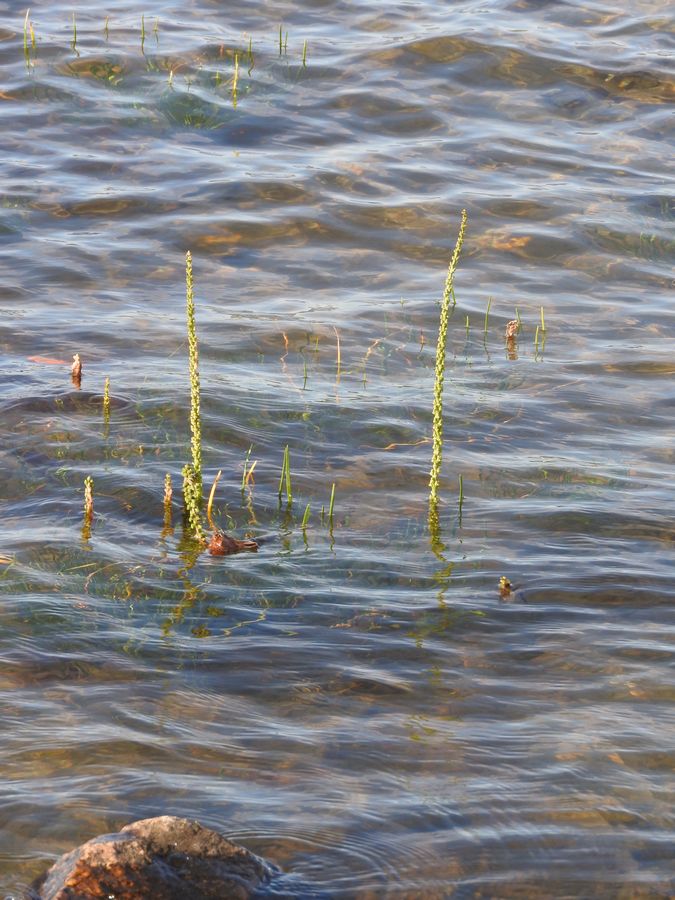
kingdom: Plantae
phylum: Tracheophyta
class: Liliopsida
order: Alismatales
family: Juncaginaceae
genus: Triglochin
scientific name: Triglochin maritima
